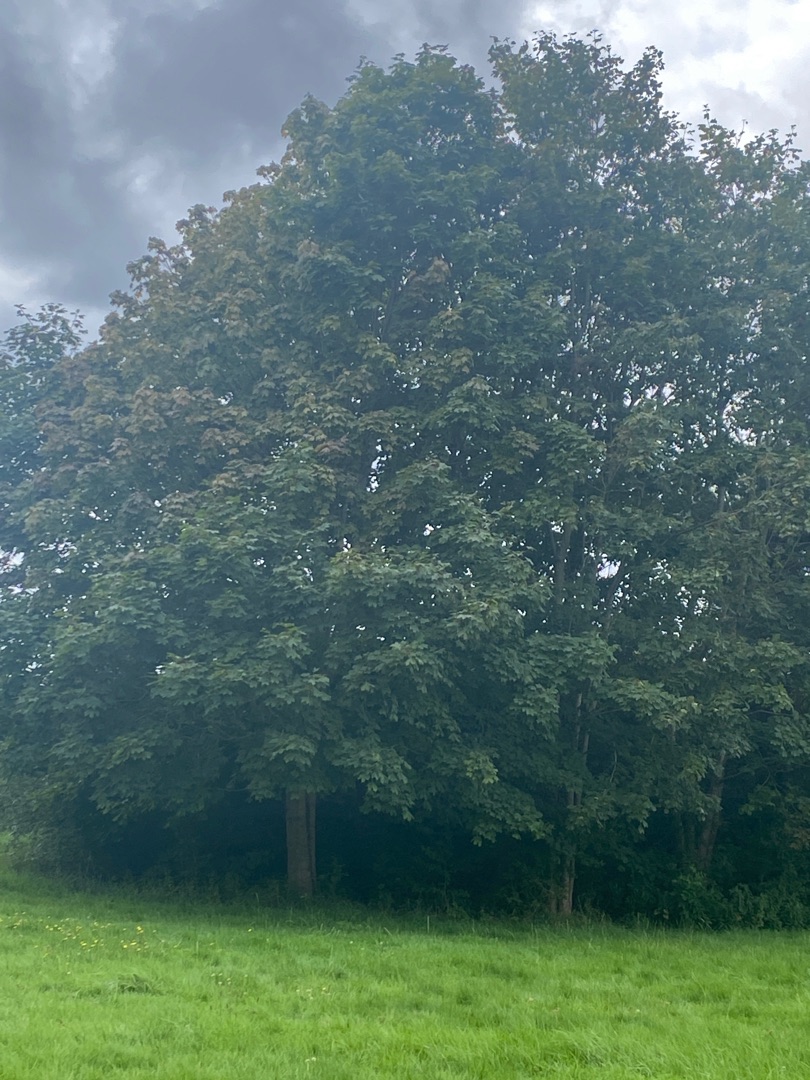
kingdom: Plantae
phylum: Tracheophyta
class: Magnoliopsida
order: Sapindales
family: Sapindaceae
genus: Acer
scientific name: Acer pseudoplatanus
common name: Ahorn
